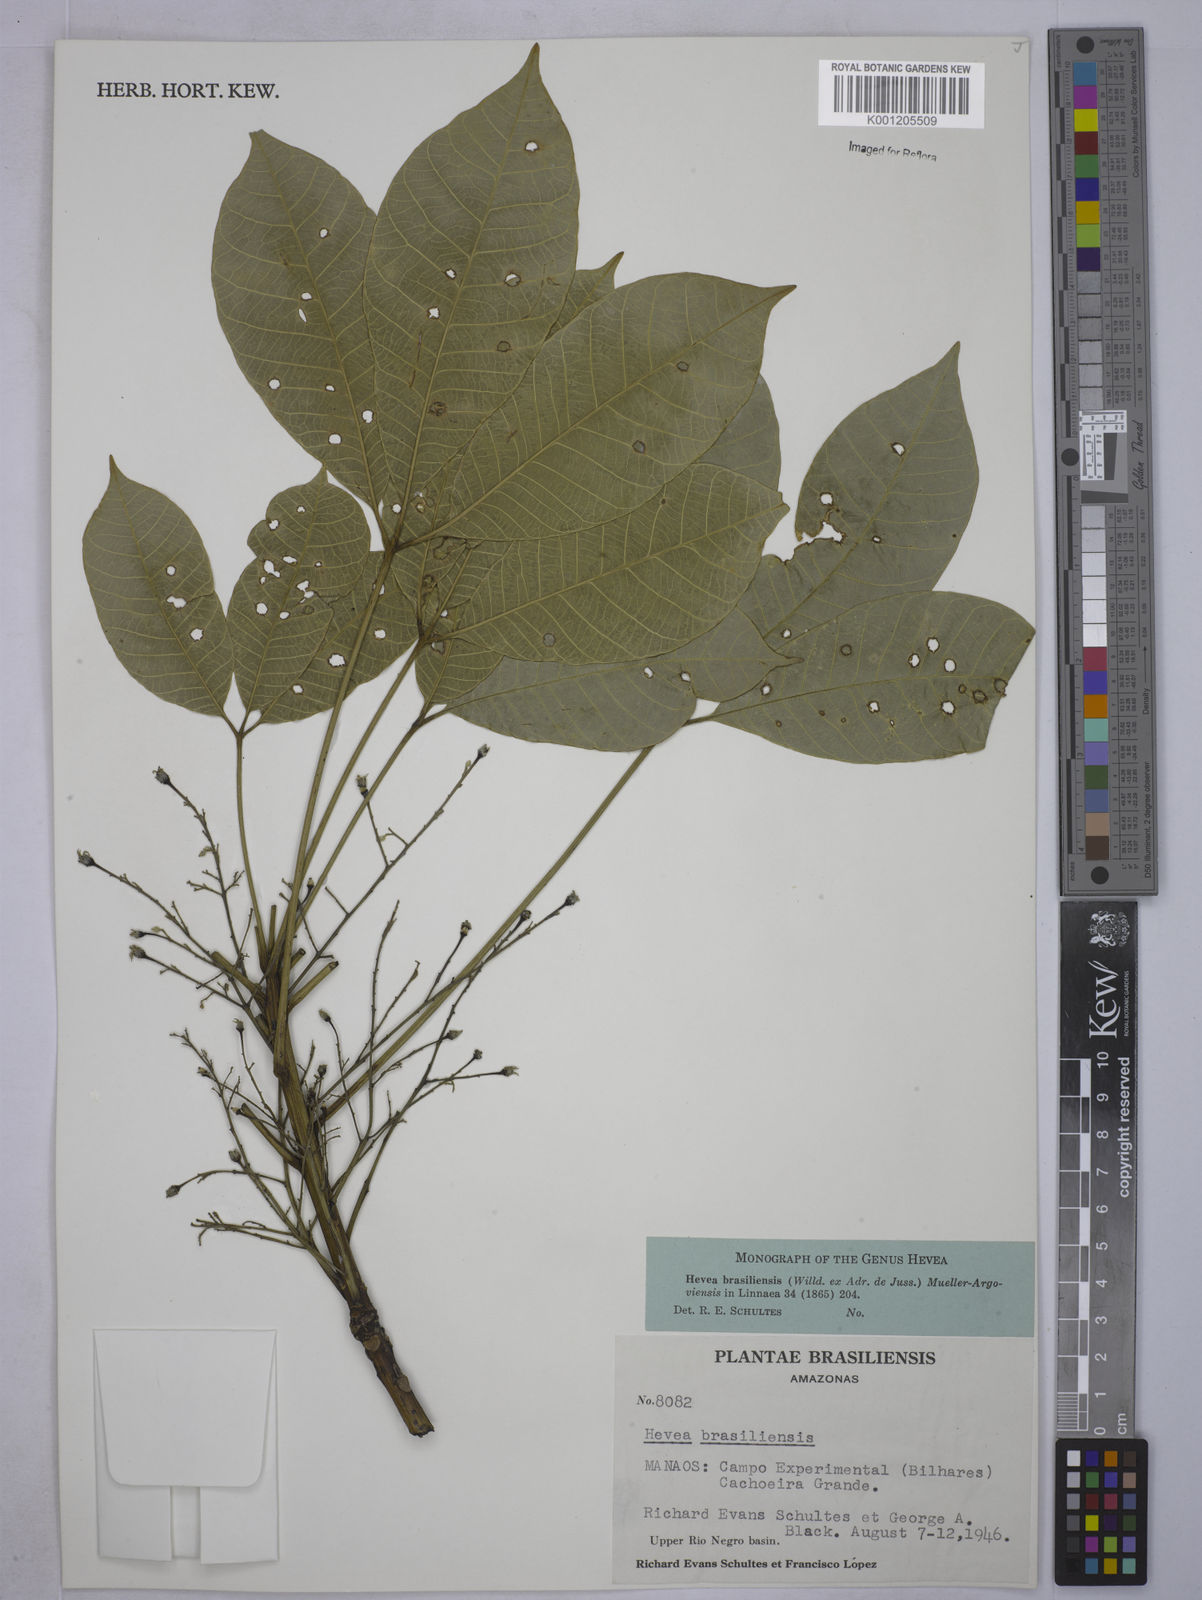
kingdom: Plantae
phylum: Tracheophyta
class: Magnoliopsida
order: Malpighiales
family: Euphorbiaceae
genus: Hevea
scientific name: Hevea
